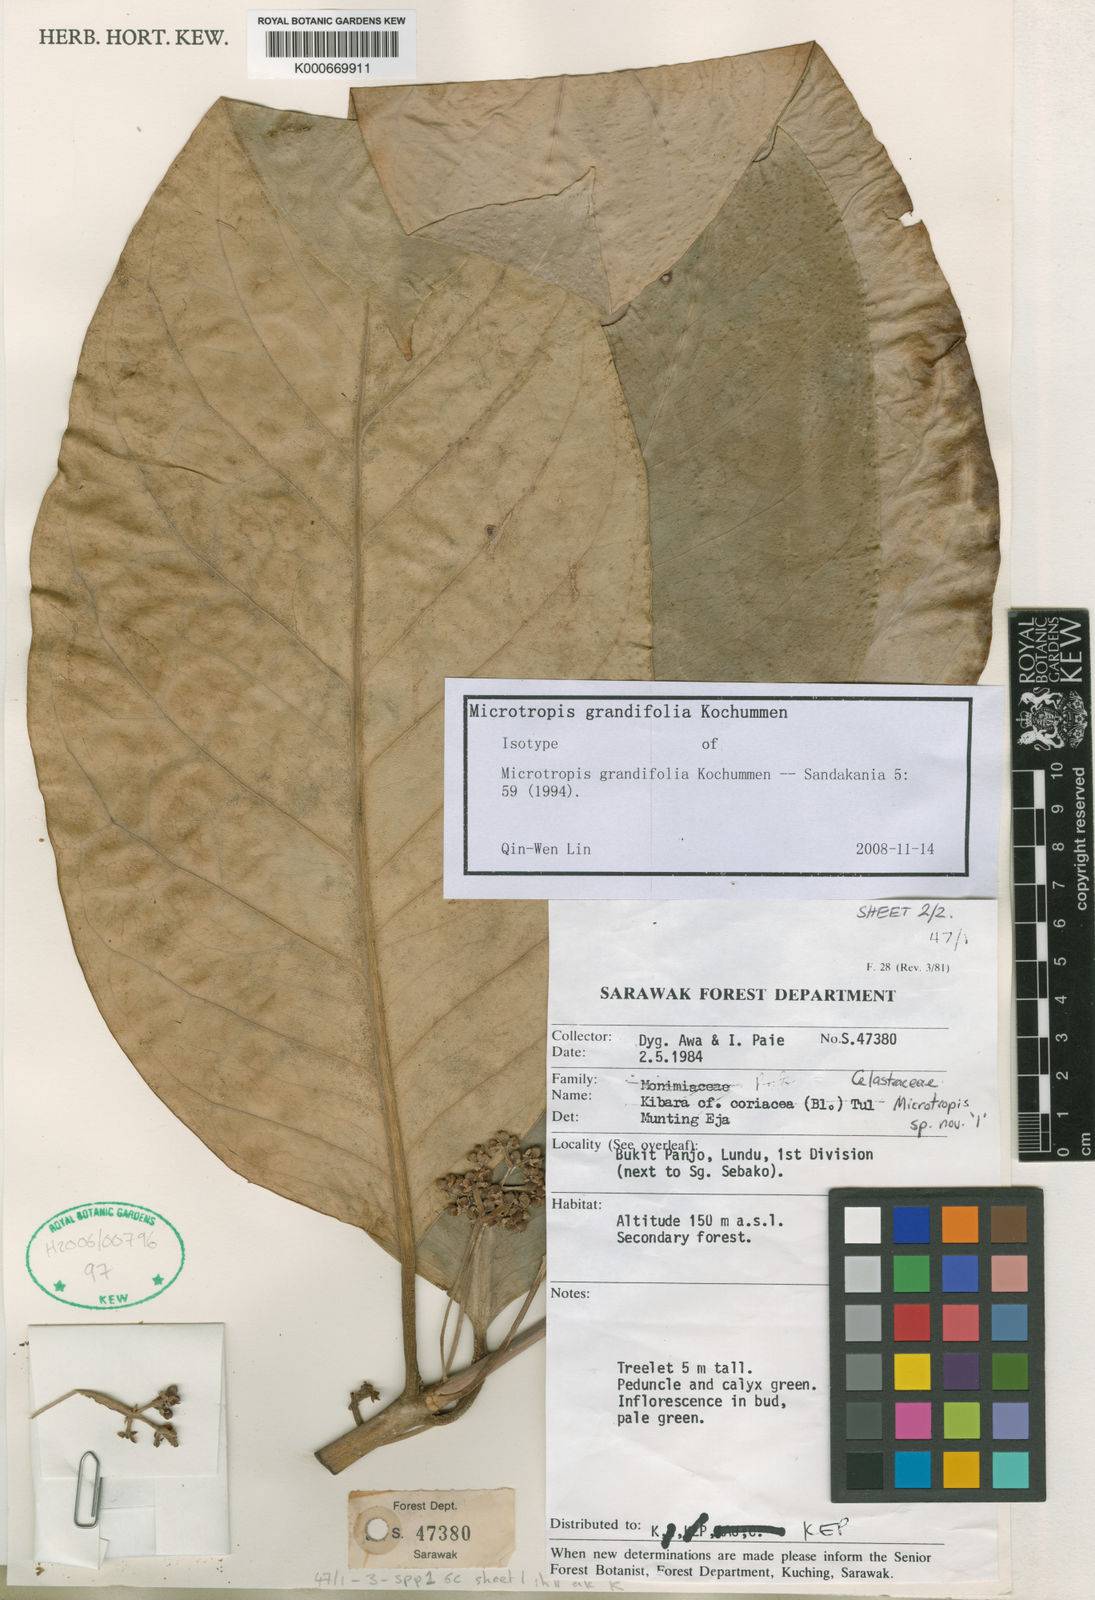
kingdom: Plantae
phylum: Tracheophyta
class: Magnoliopsida
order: Celastrales
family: Celastraceae
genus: Microtropis
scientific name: Microtropis grandifolia
